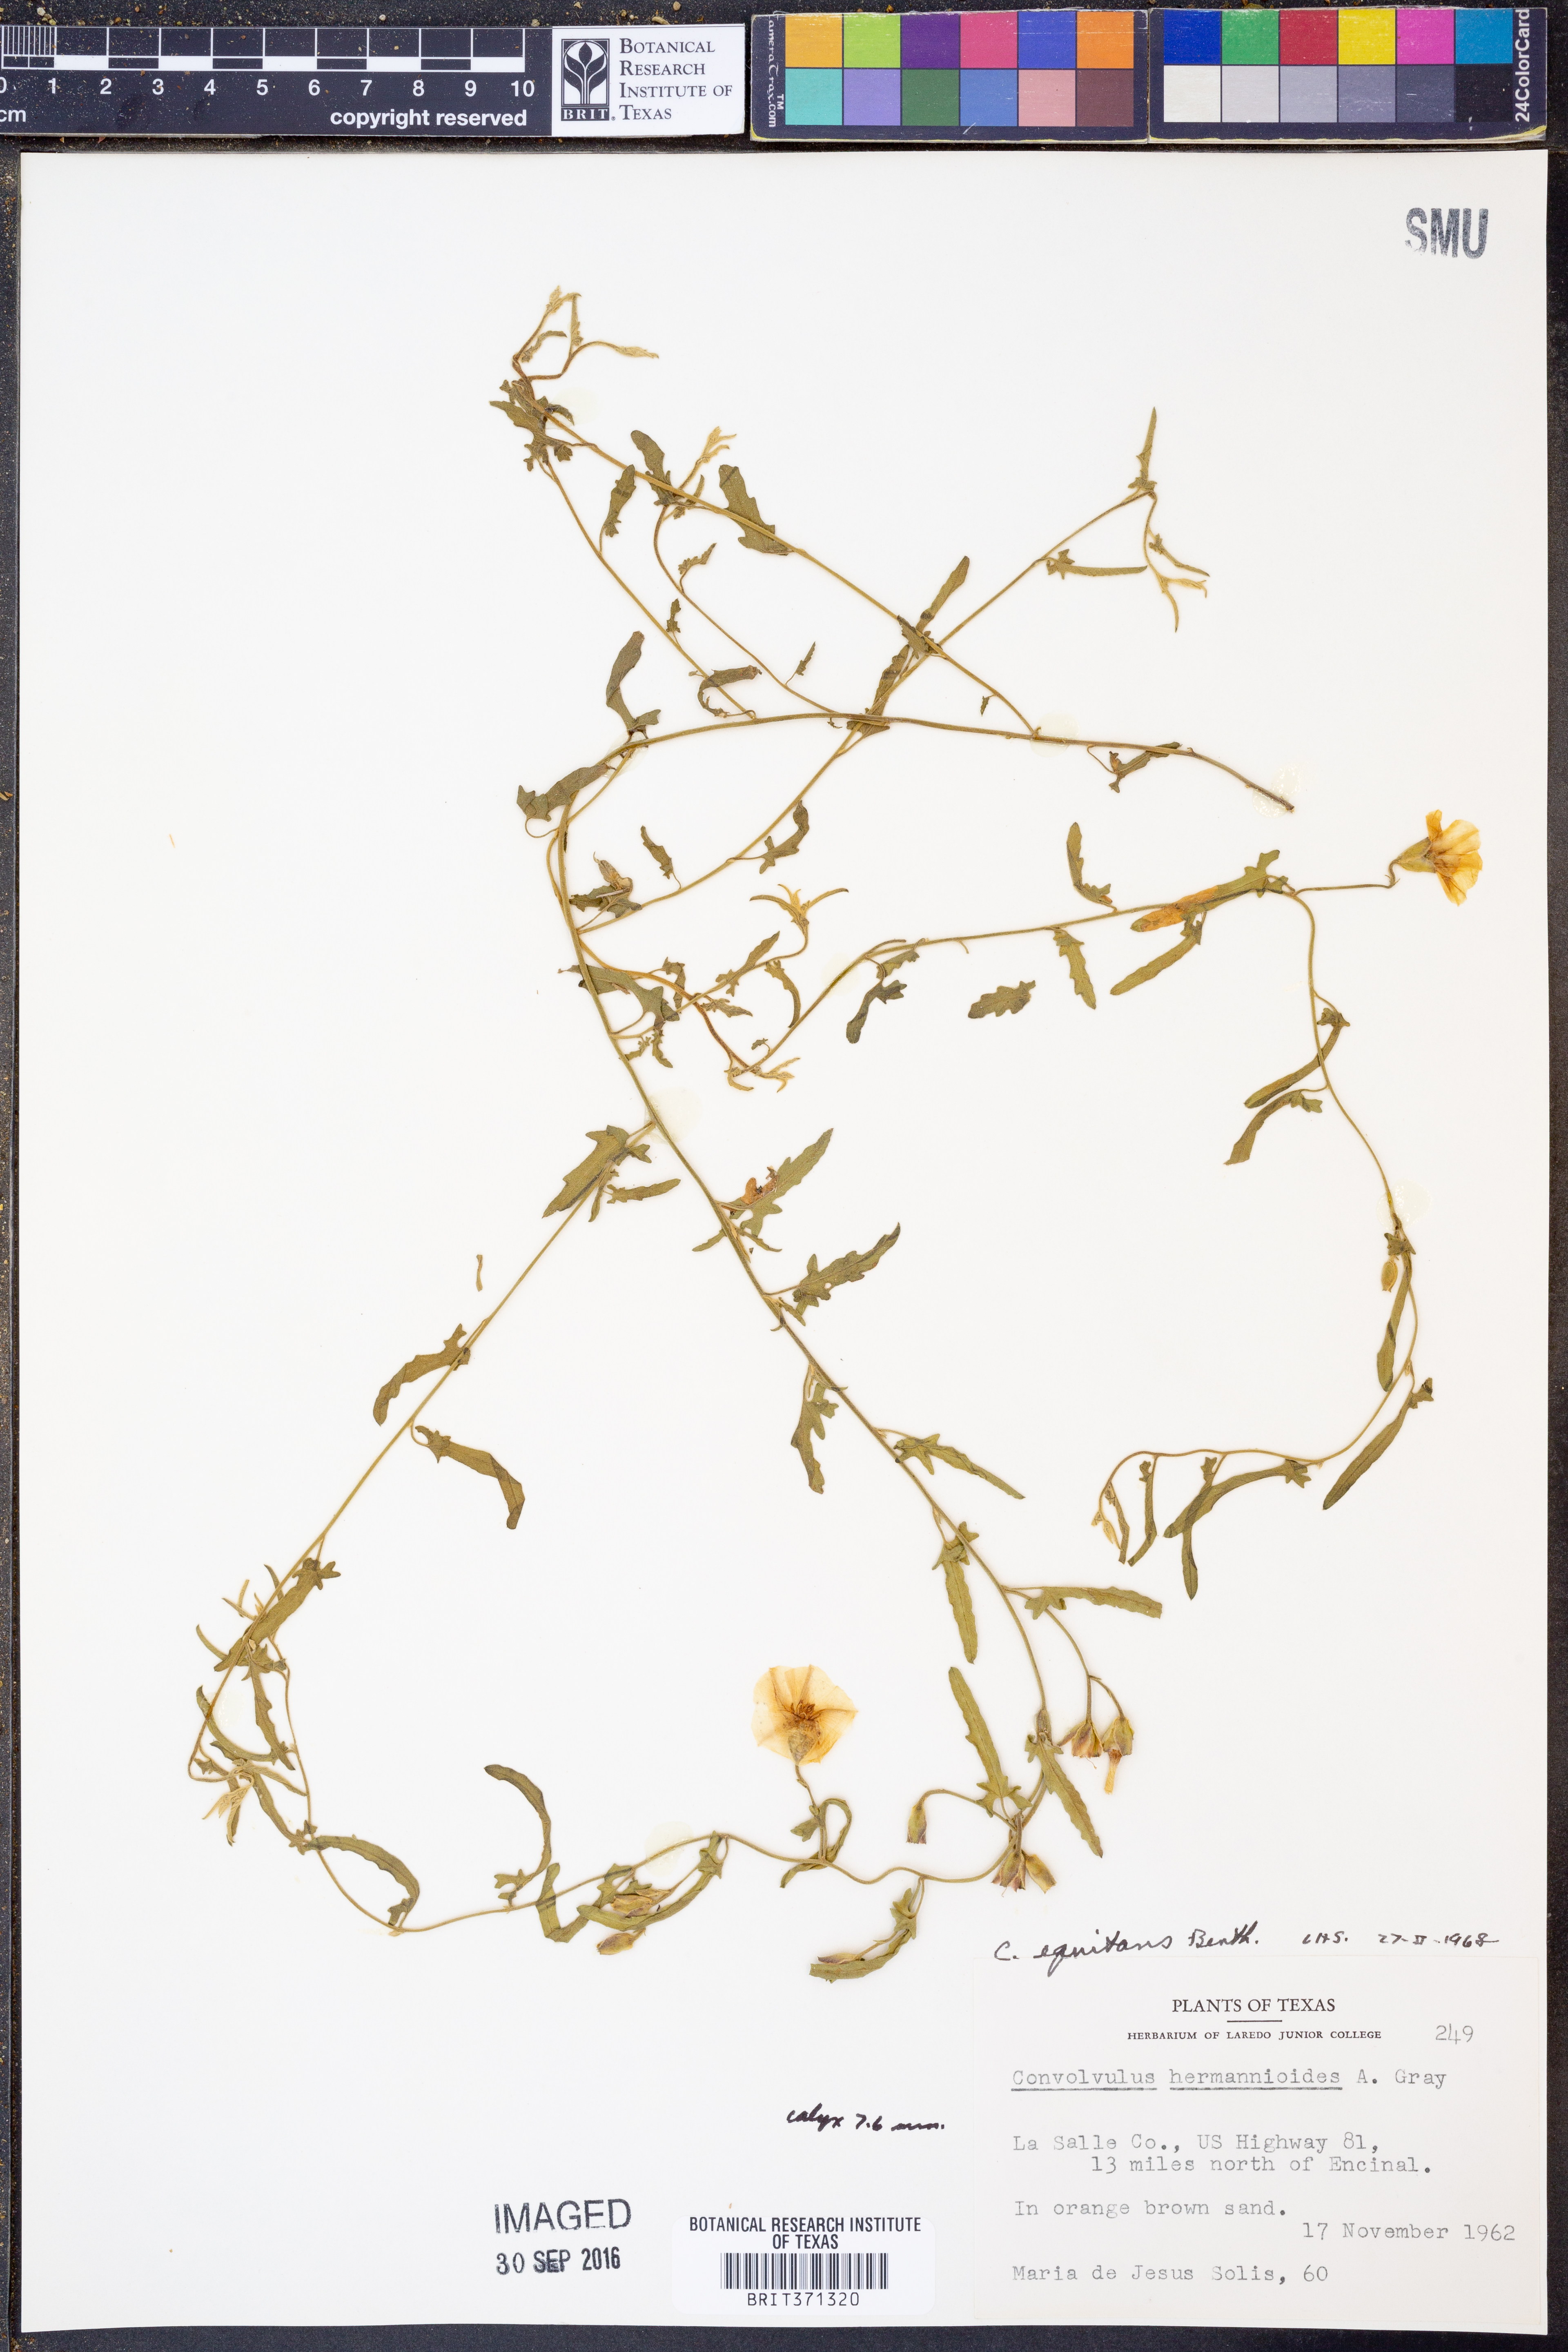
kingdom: Plantae
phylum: Tracheophyta
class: Magnoliopsida
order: Solanales
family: Convolvulaceae
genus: Convolvulus
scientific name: Convolvulus equitans
